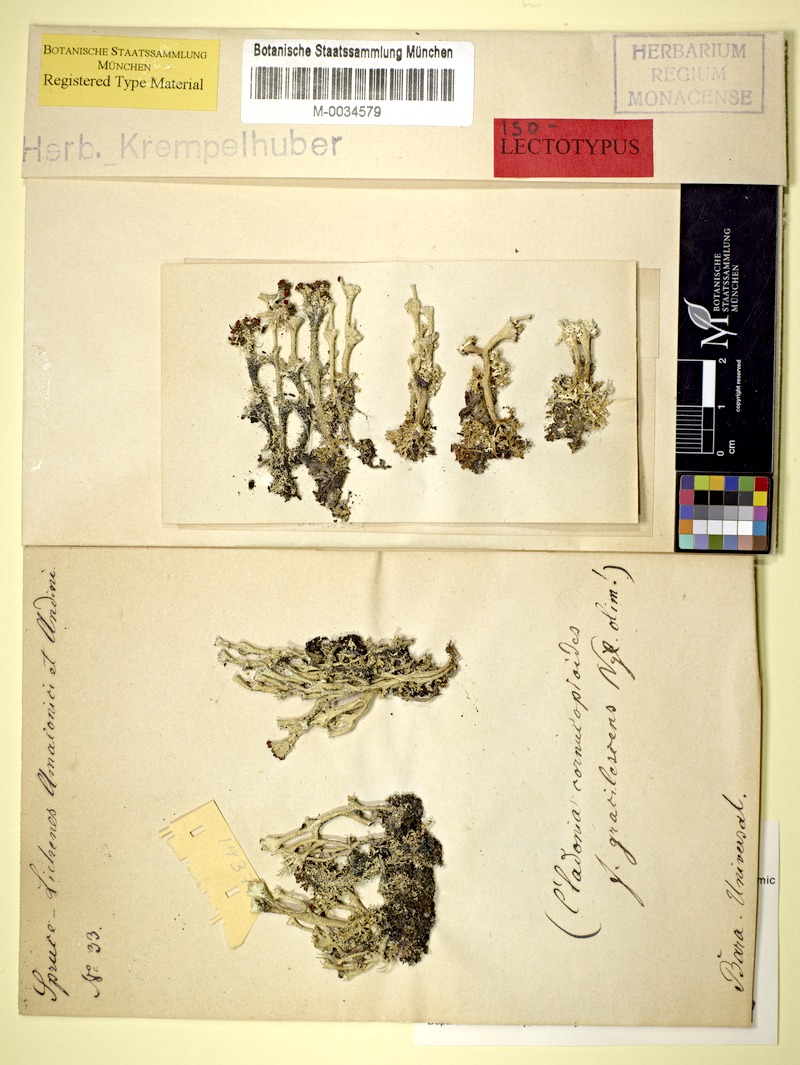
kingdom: Fungi
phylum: Ascomycota
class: Lecanoromycetes
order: Lecanorales
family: Cladoniaceae
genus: Cladonia
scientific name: Cladonia brasiliensis
